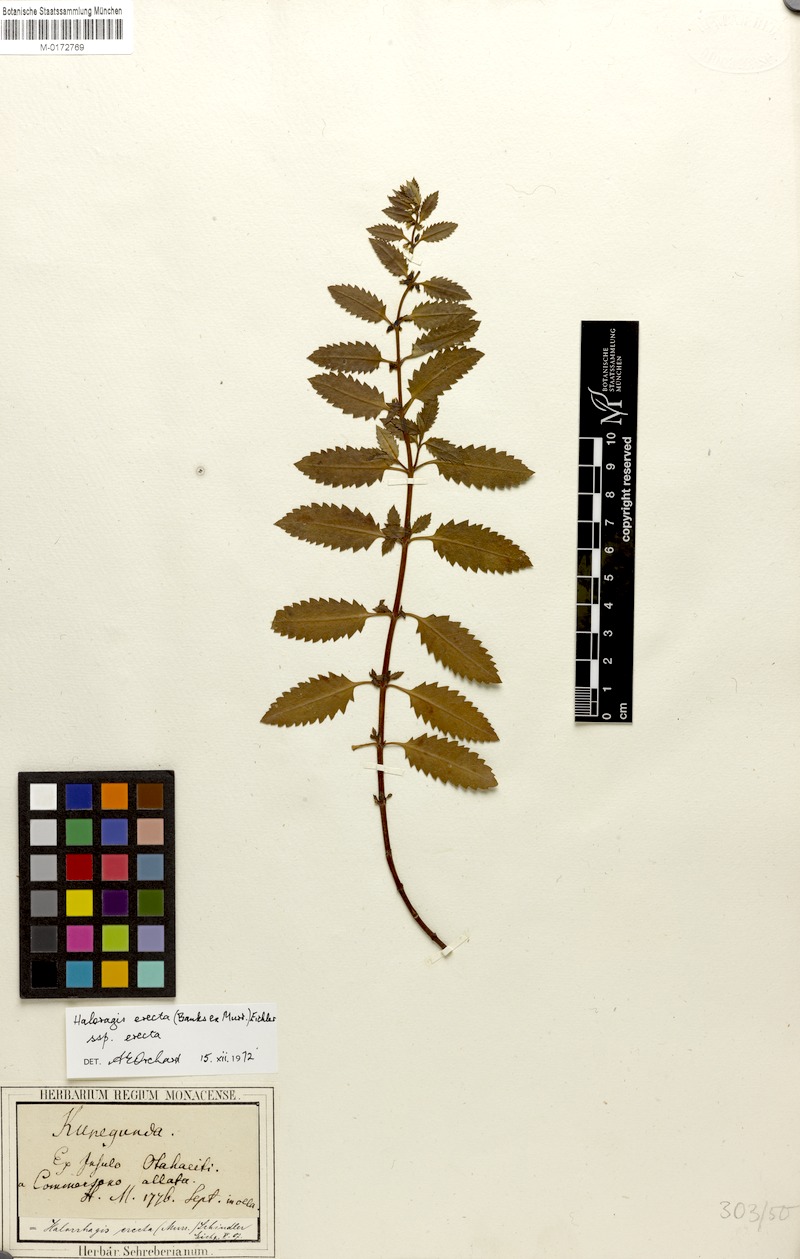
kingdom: Plantae
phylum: Tracheophyta
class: Magnoliopsida
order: Saxifragales
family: Haloragaceae
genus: Haloragis
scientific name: Haloragis erecta
